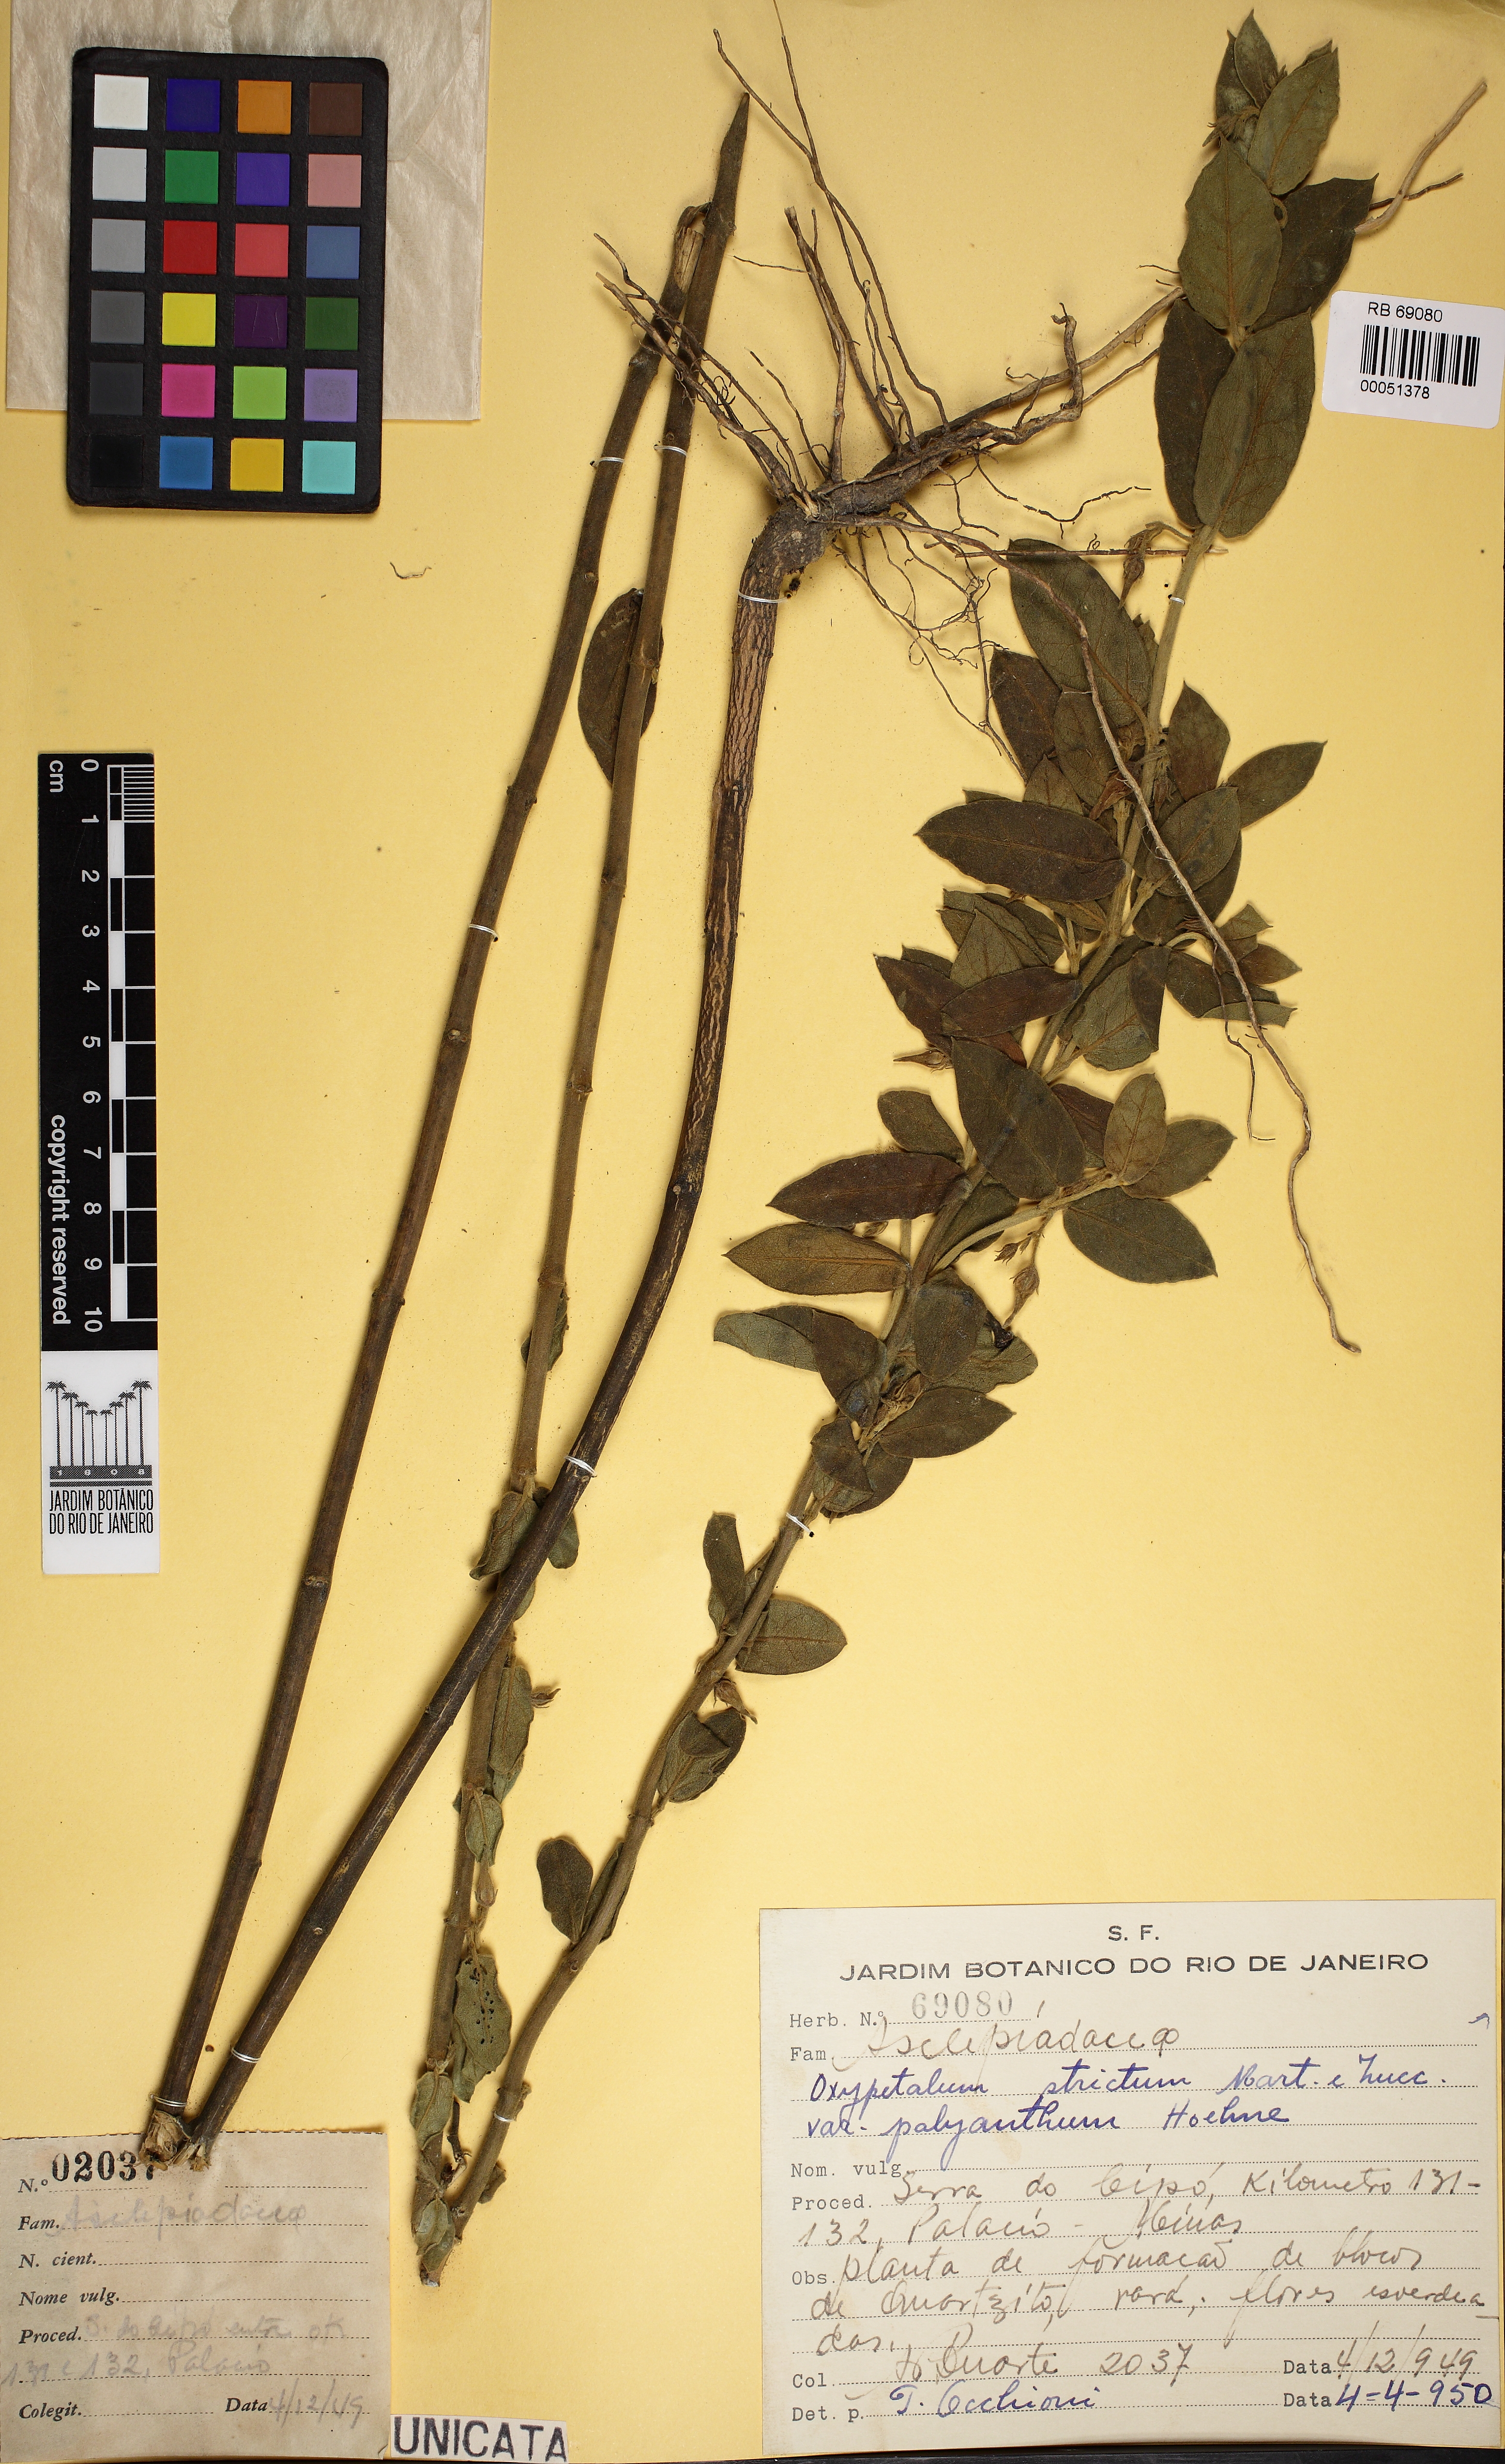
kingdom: Plantae
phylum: Tracheophyta
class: Magnoliopsida
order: Gentianales
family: Apocynaceae
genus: Oxypetalum
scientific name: Oxypetalum polyanthum
